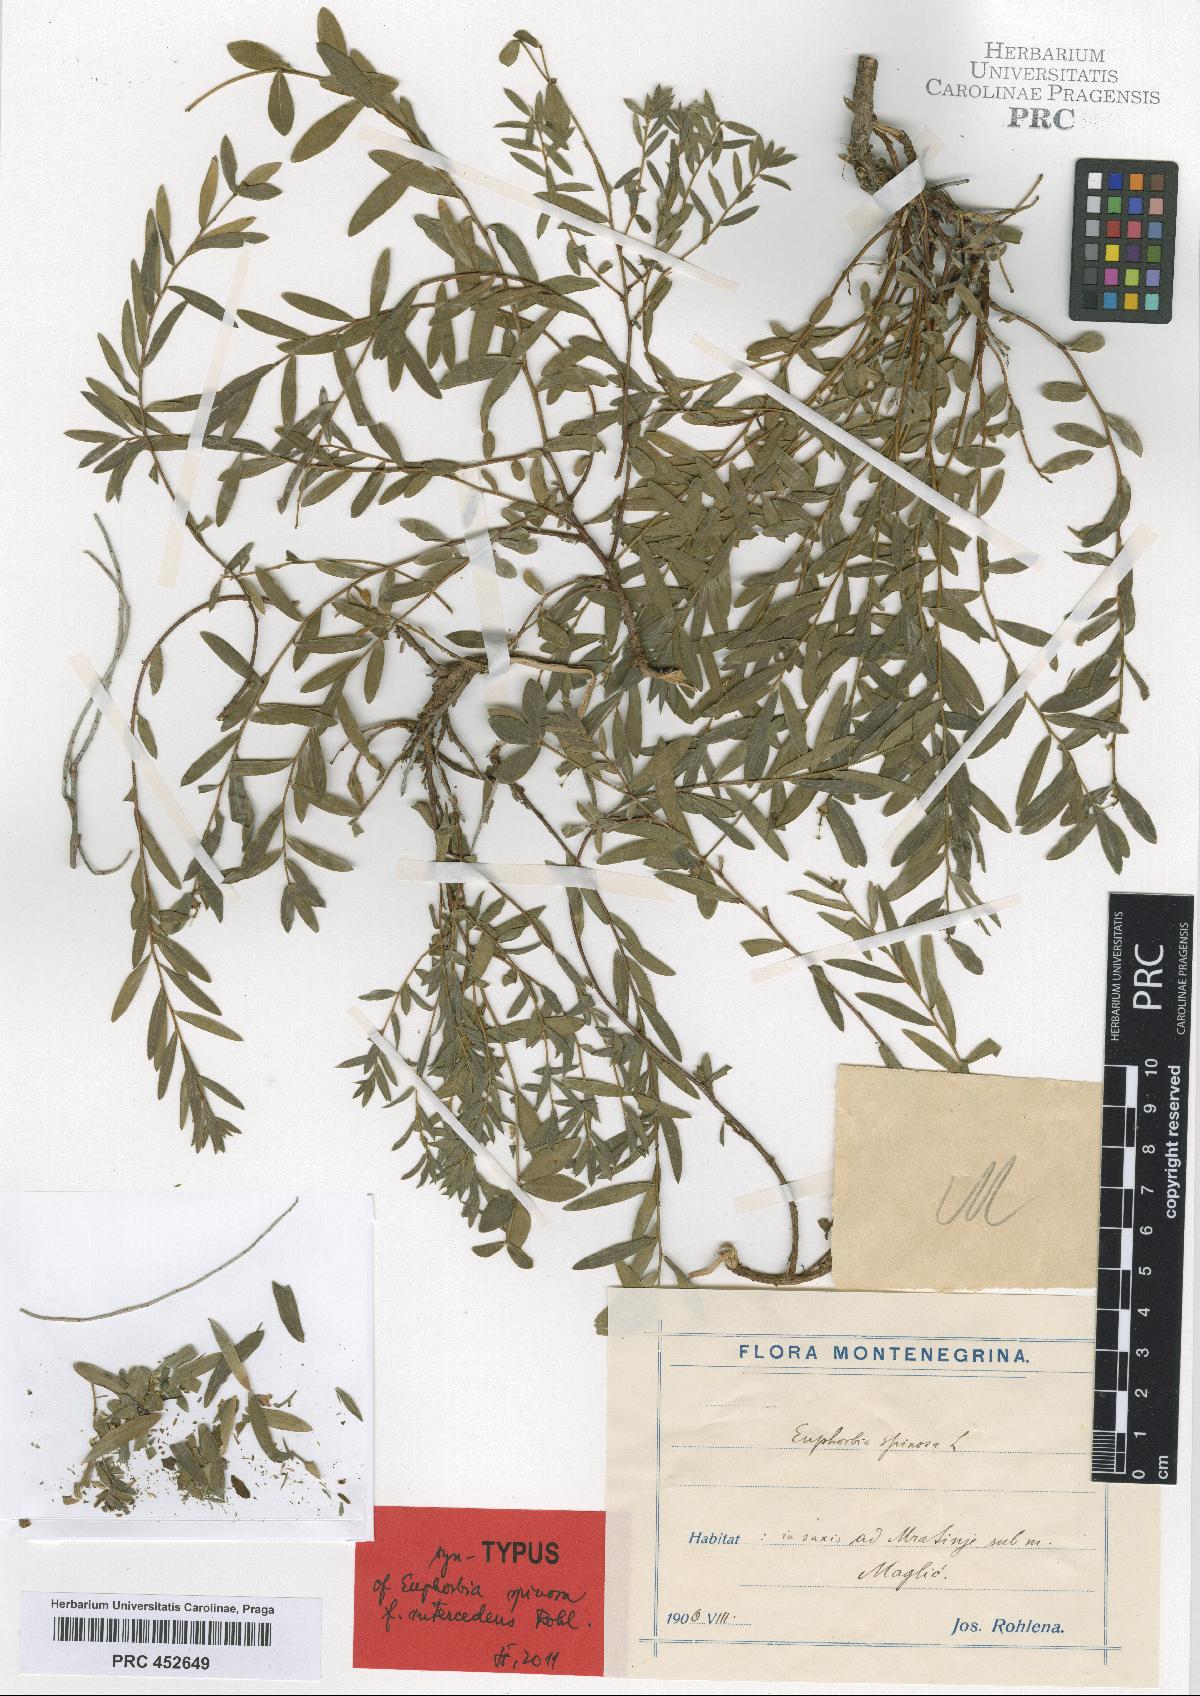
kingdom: Plantae
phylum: Tracheophyta
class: Magnoliopsida
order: Malpighiales
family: Euphorbiaceae
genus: Euphorbia
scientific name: Euphorbia spinosa
